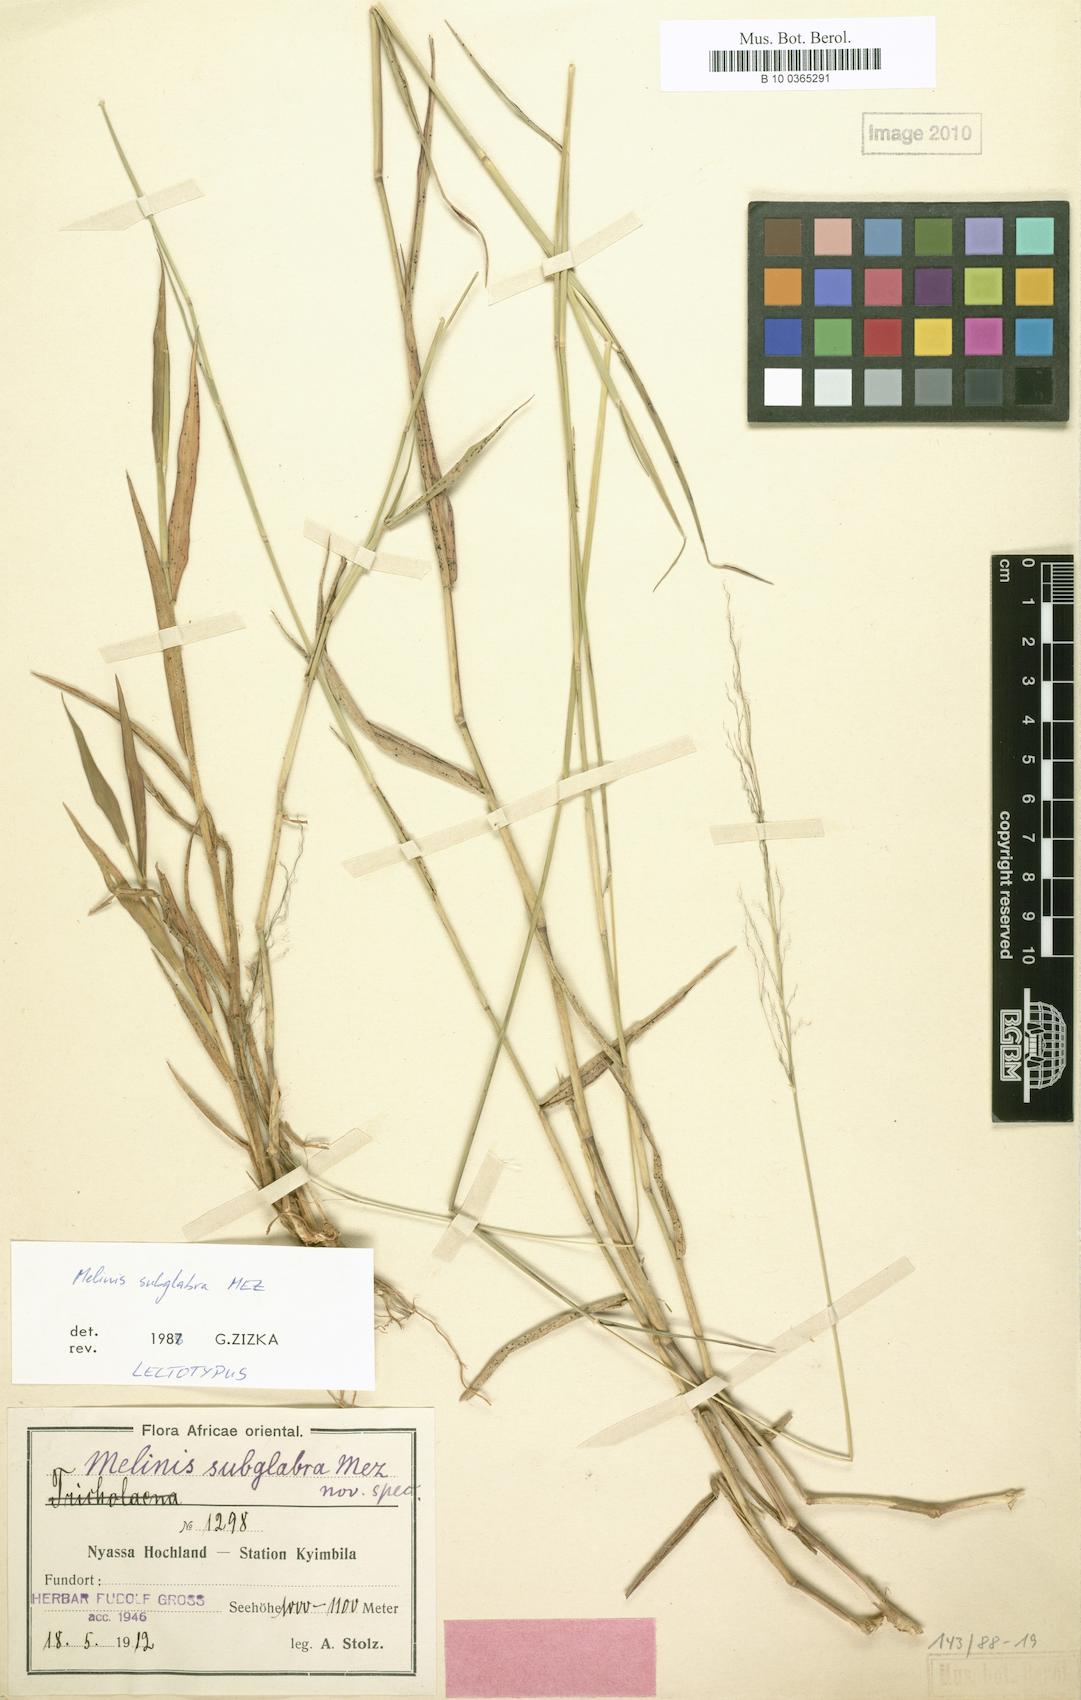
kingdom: Plantae
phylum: Tracheophyta
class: Liliopsida
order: Poales
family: Poaceae
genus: Melinis
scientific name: Melinis subglabra
